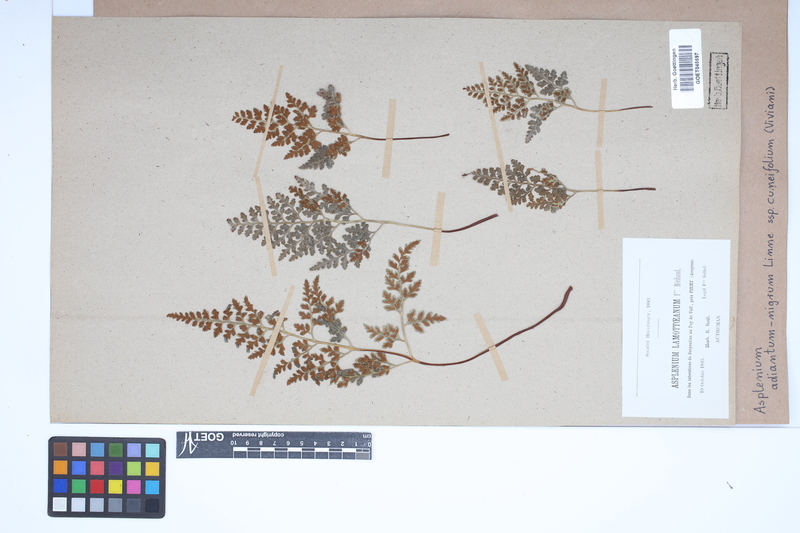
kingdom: Plantae
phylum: Tracheophyta
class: Polypodiopsida
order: Polypodiales
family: Aspleniaceae
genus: Asplenium
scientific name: Asplenium cuneifolium
